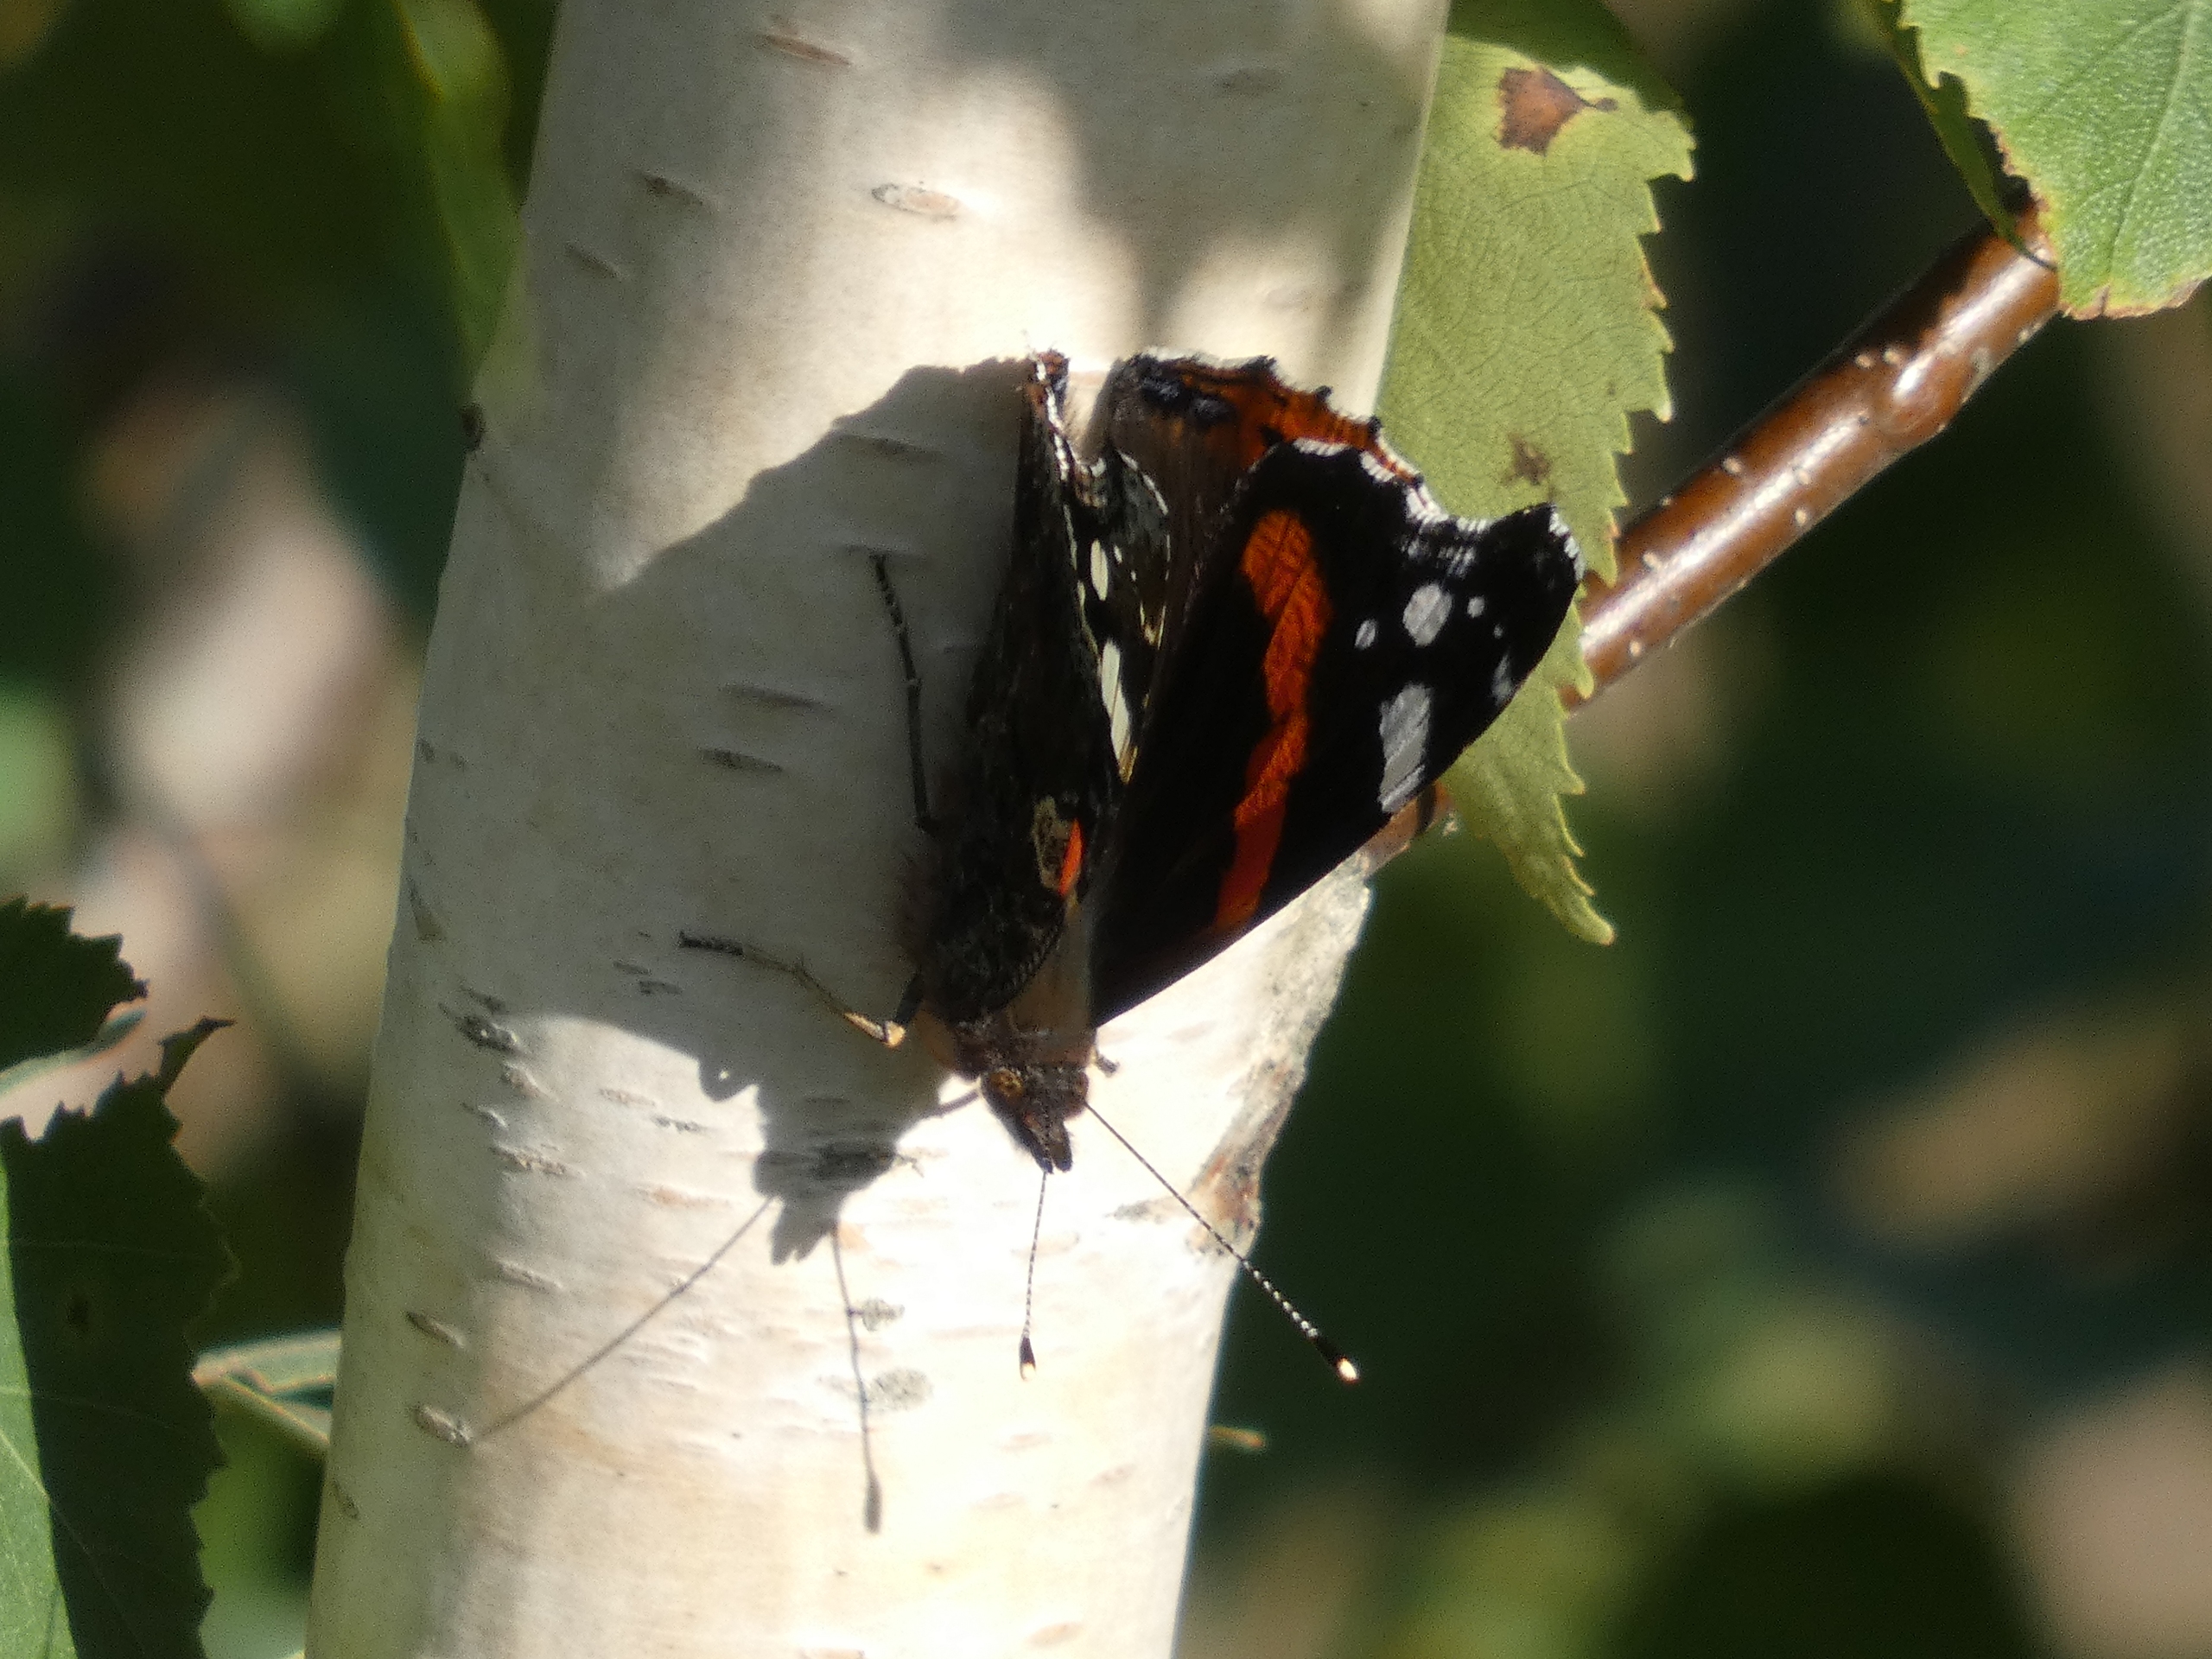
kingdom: Animalia
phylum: Arthropoda
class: Insecta
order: Lepidoptera
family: Nymphalidae
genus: Vanessa
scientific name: Vanessa atalanta
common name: Admiral
